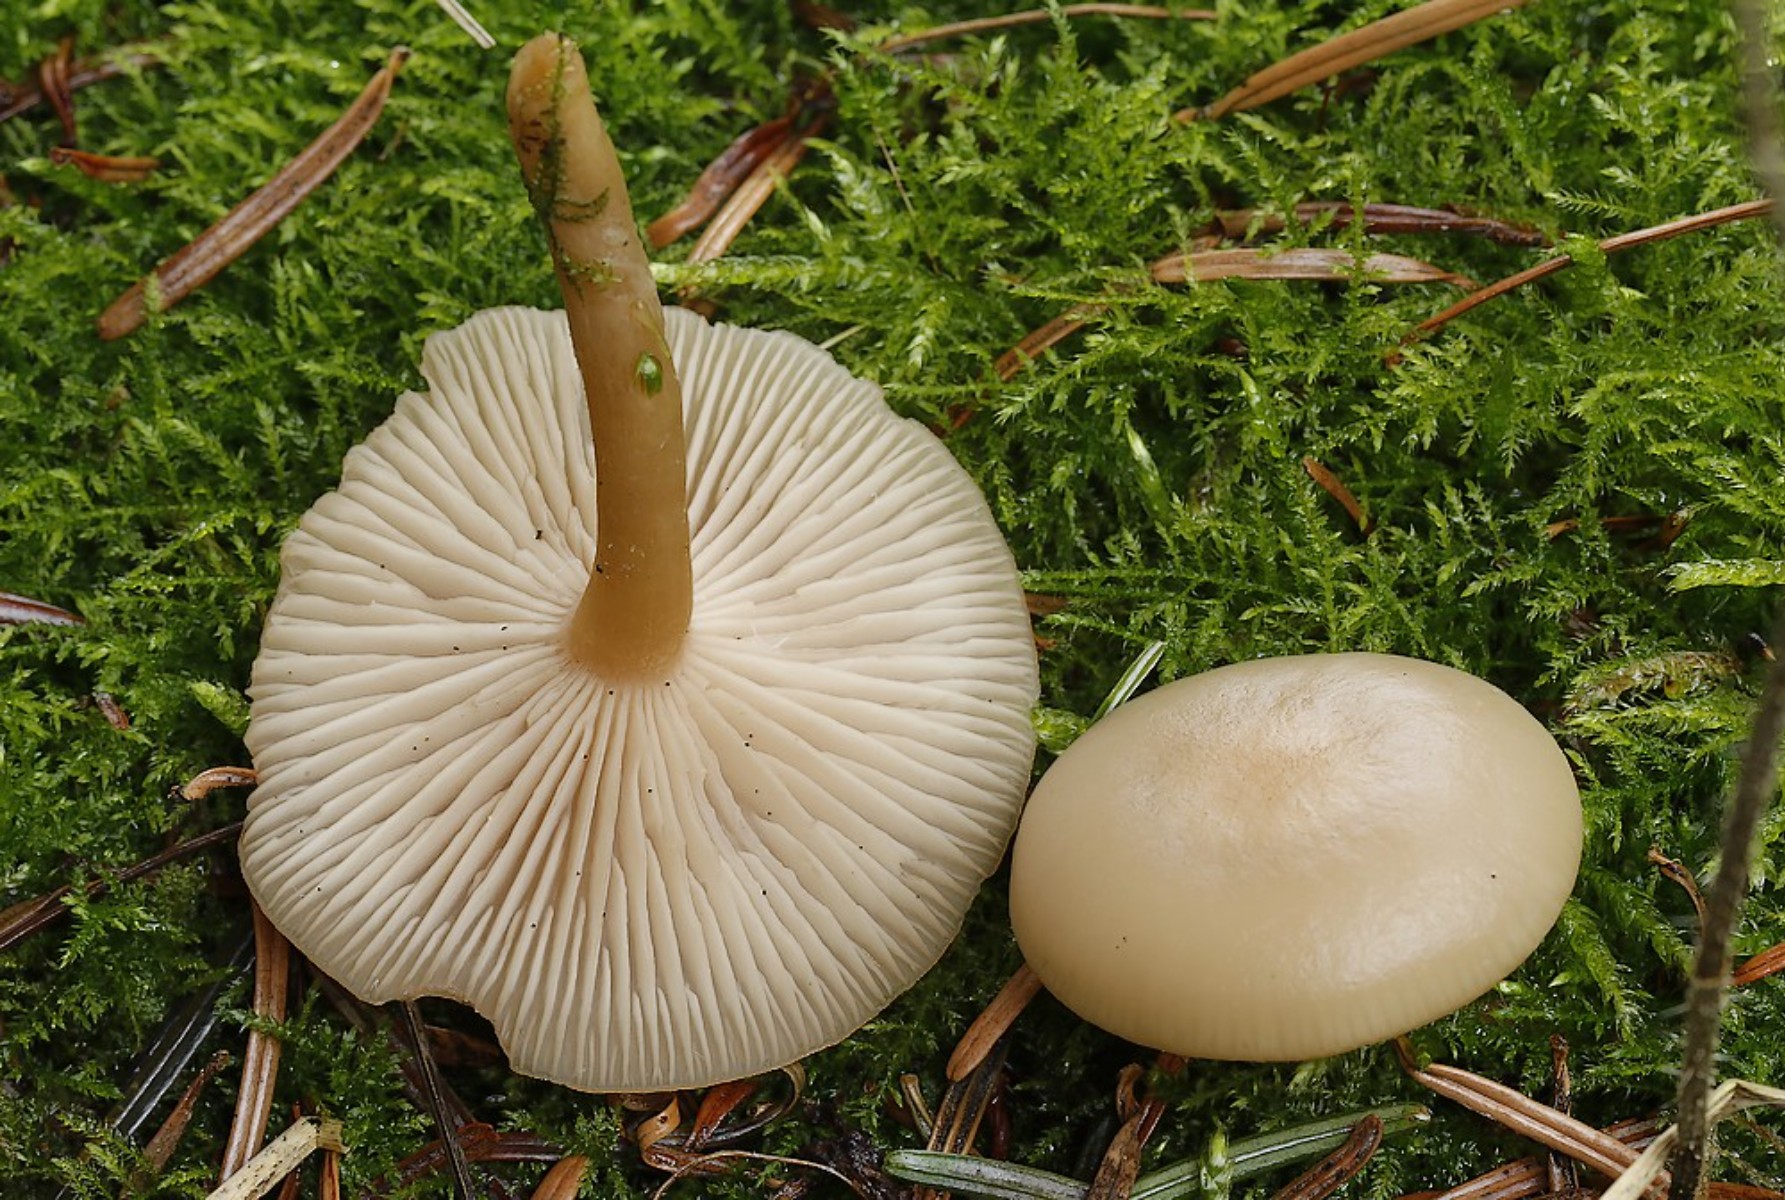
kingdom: Fungi
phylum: Basidiomycota
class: Agaricomycetes
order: Agaricales
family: Tricholomataceae
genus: Clitocybe
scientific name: Clitocybe fragrans
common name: vellugtende tragthat
